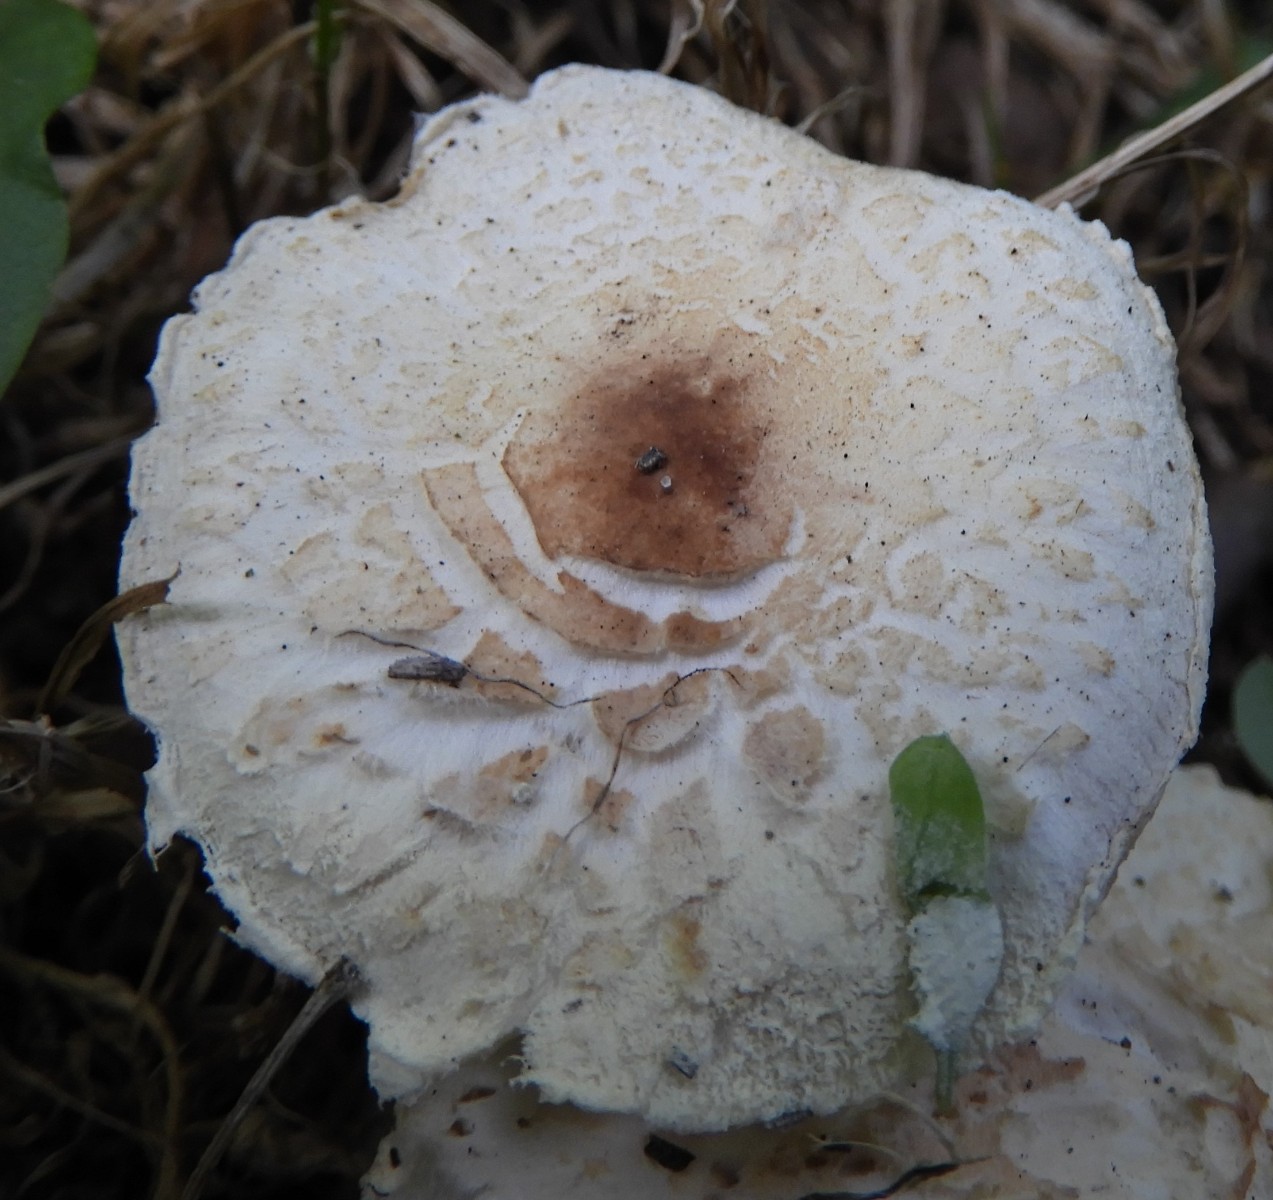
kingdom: Fungi
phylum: Basidiomycota
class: Agaricomycetes
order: Agaricales
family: Agaricaceae
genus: Lepiota
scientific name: Lepiota cristata
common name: stinkende parasolhat
